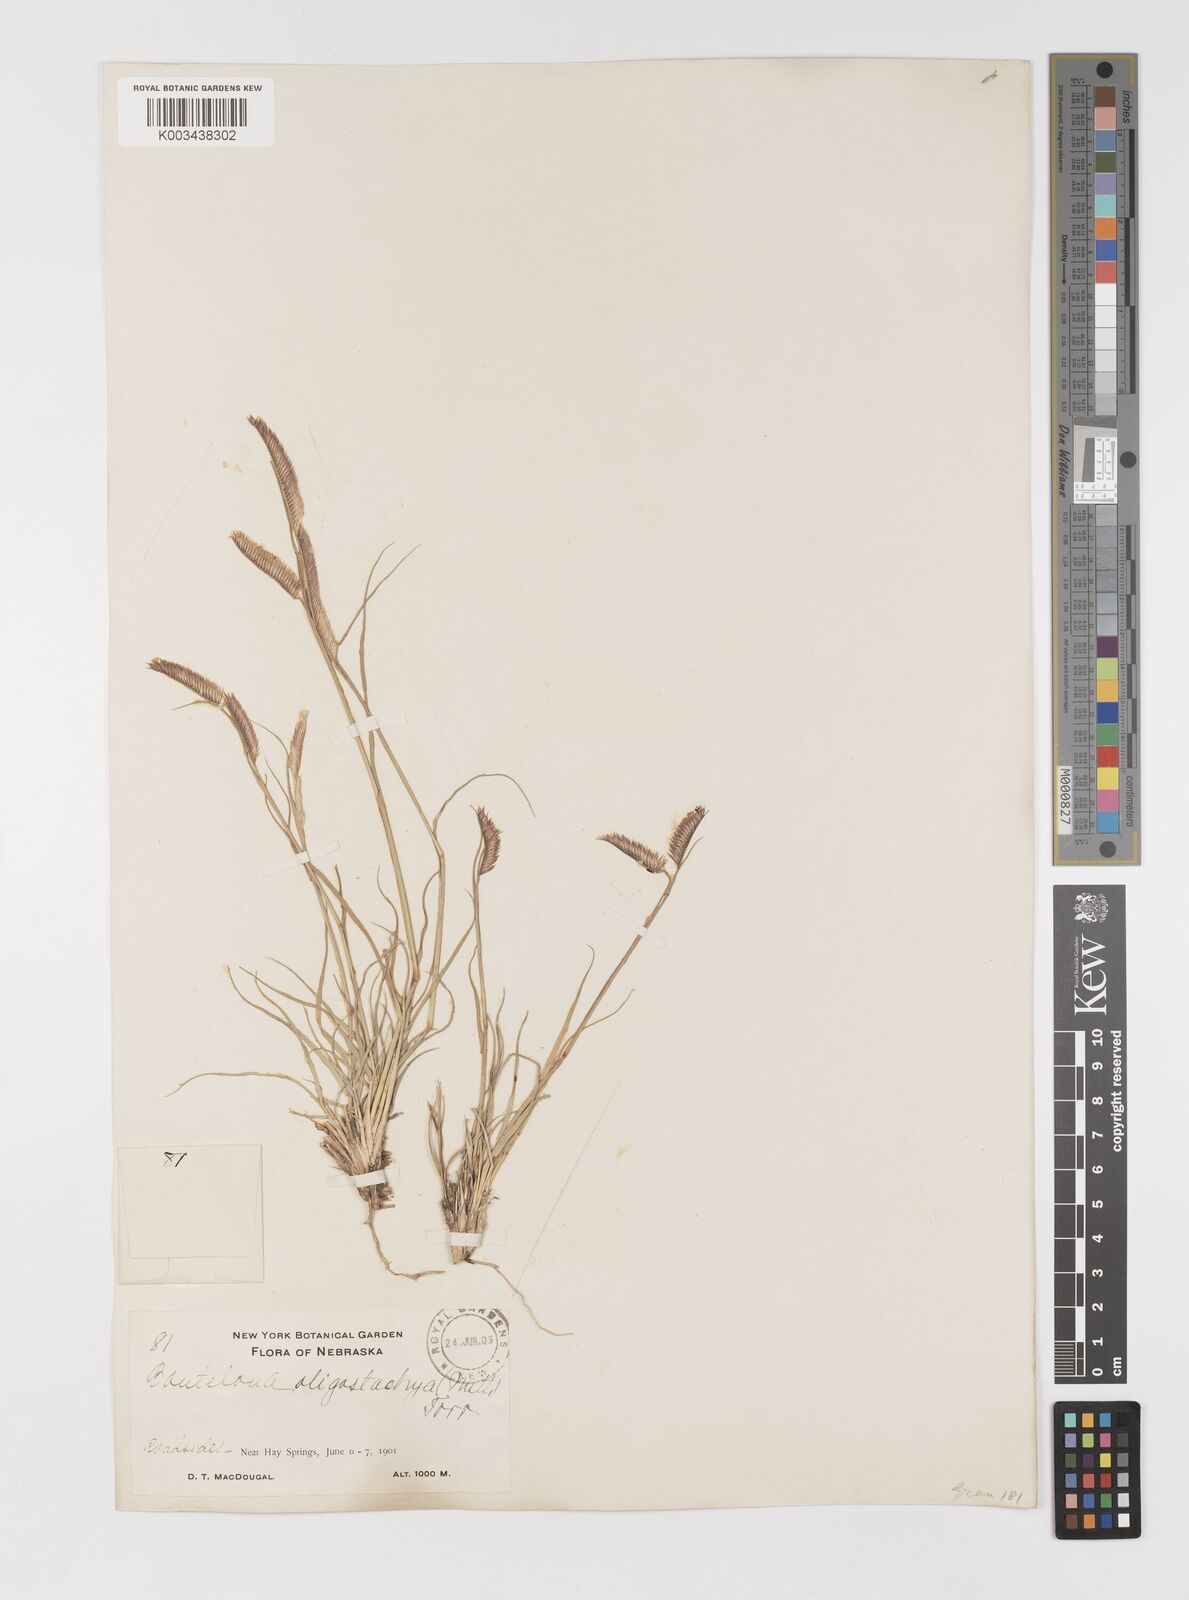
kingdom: Plantae
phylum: Tracheophyta
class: Liliopsida
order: Poales
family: Poaceae
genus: Bouteloua
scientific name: Bouteloua
